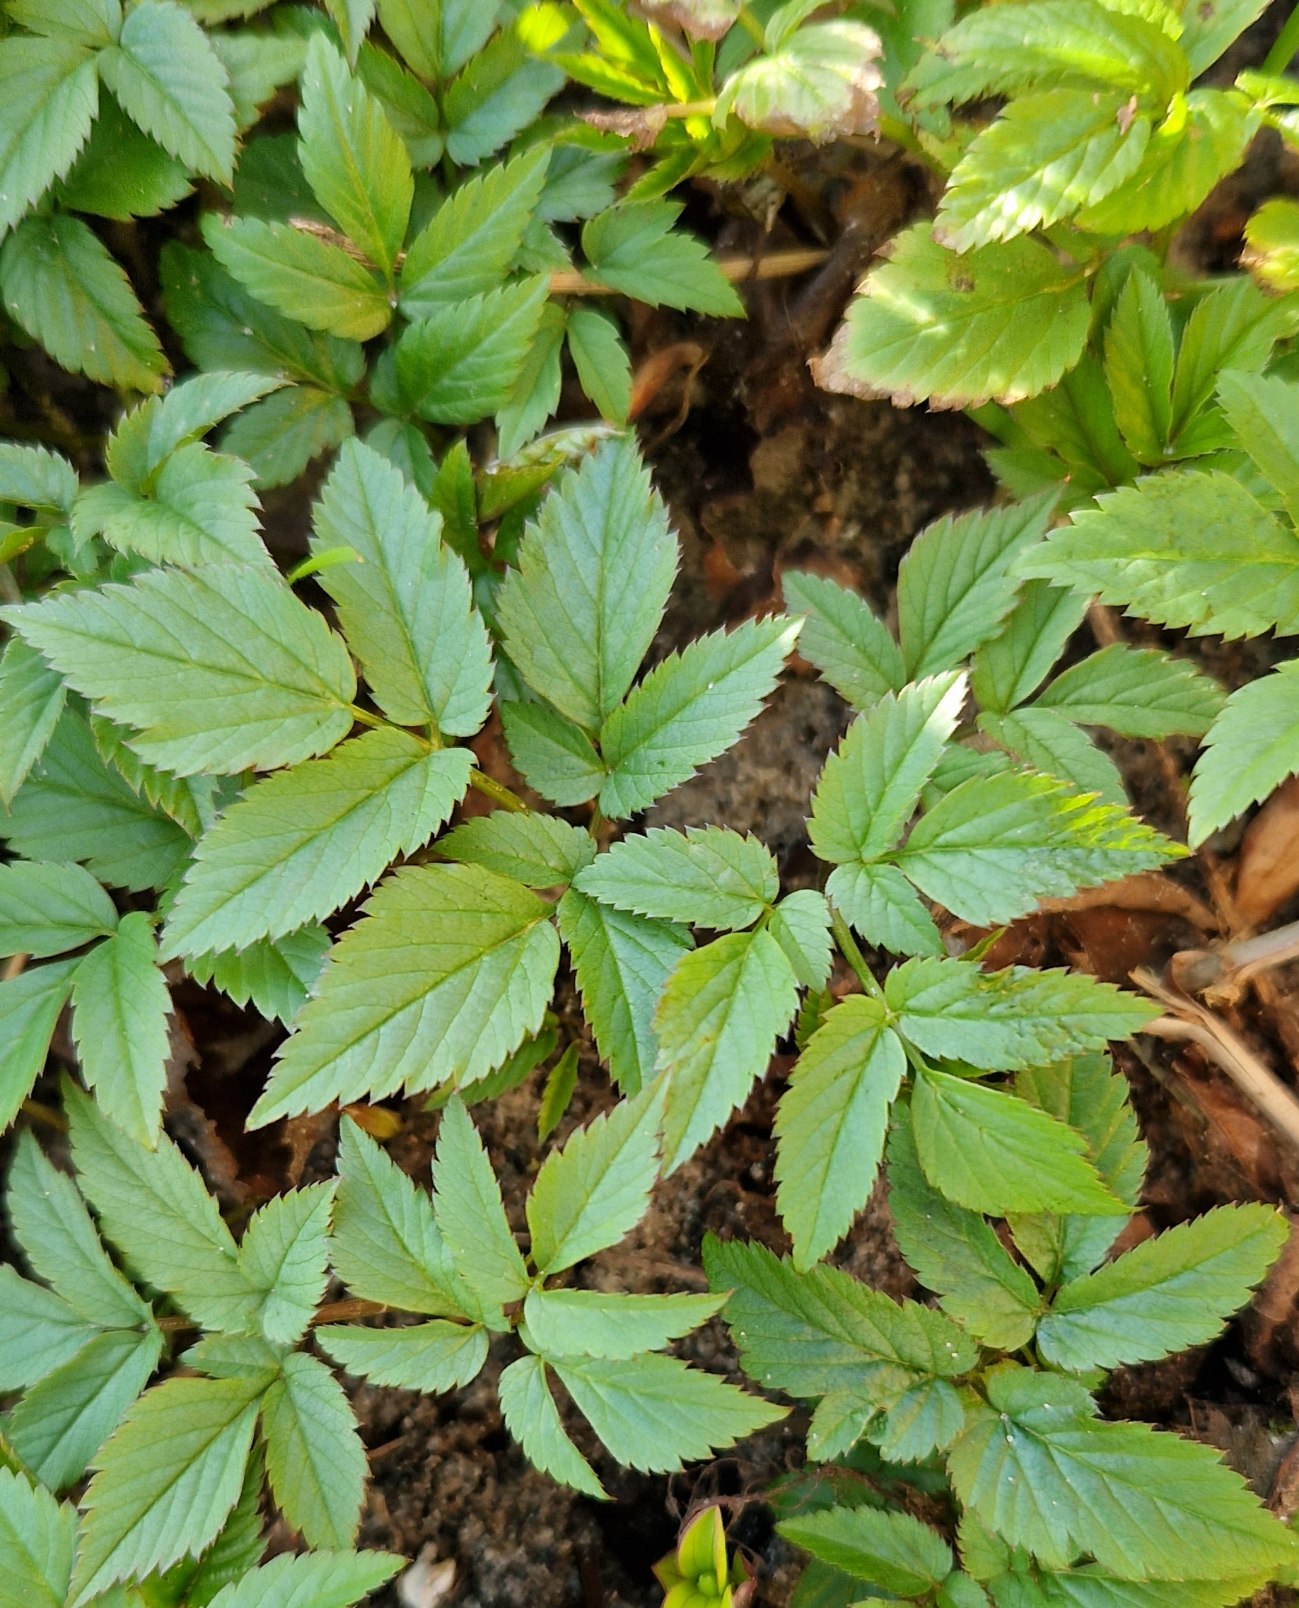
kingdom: Plantae
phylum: Tracheophyta
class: Magnoliopsida
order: Apiales
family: Apiaceae
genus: Aegopodium
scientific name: Aegopodium podagraria
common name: Skvalderkål
